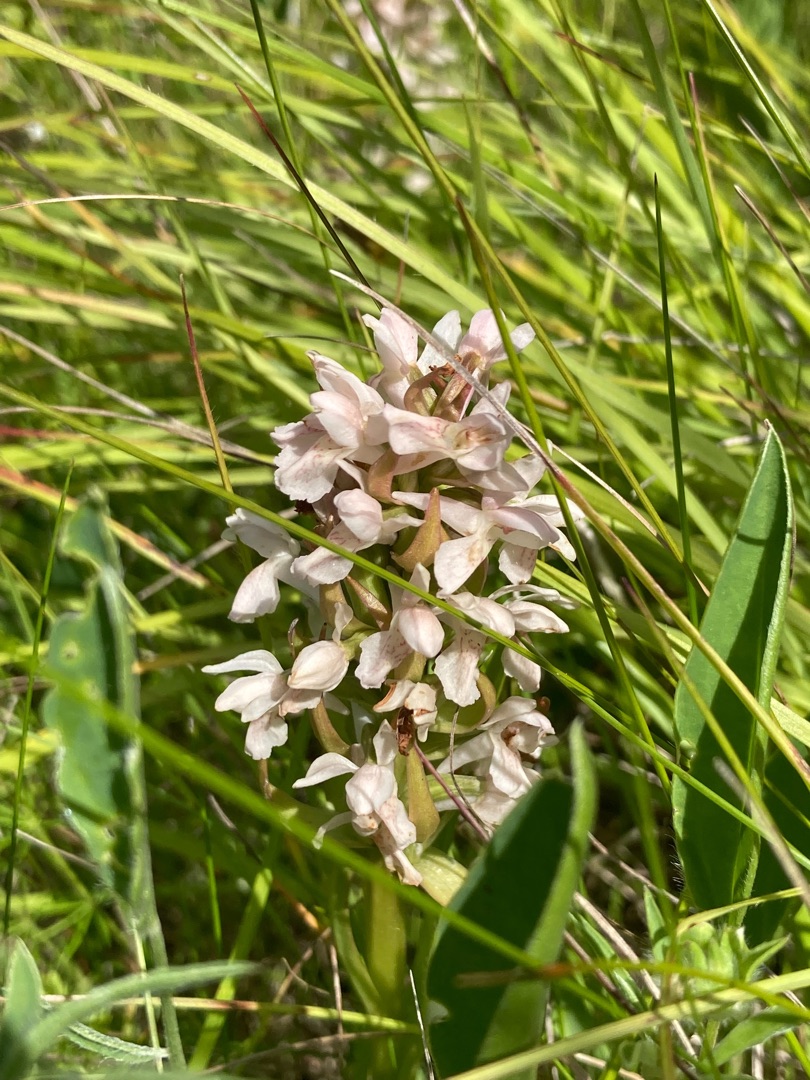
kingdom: Plantae
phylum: Tracheophyta
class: Liliopsida
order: Asparagales
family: Orchidaceae
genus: Dactylorhiza
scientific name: Dactylorhiza incarnata
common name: Kødfarvet gøgeurt
